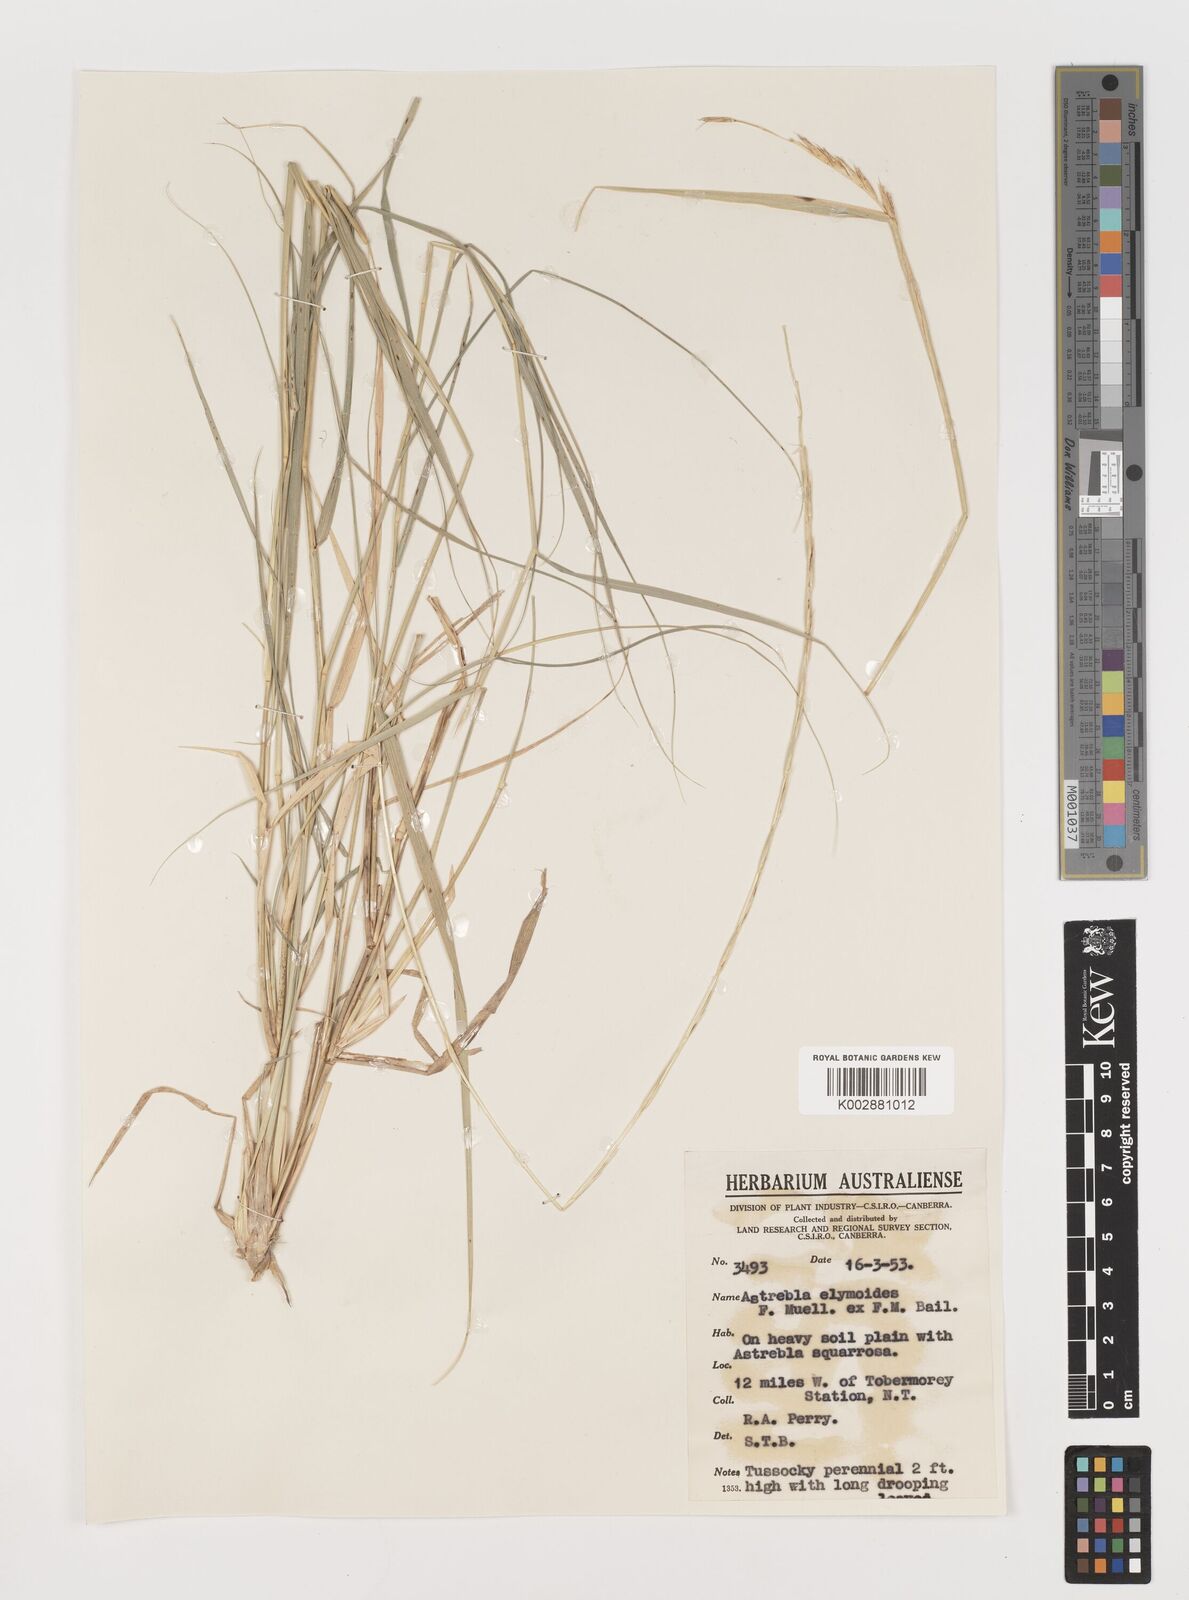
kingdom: Plantae
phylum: Tracheophyta
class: Liliopsida
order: Poales
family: Poaceae
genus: Astrebla
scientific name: Astrebla elymoides
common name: Hoop mitchell grass
